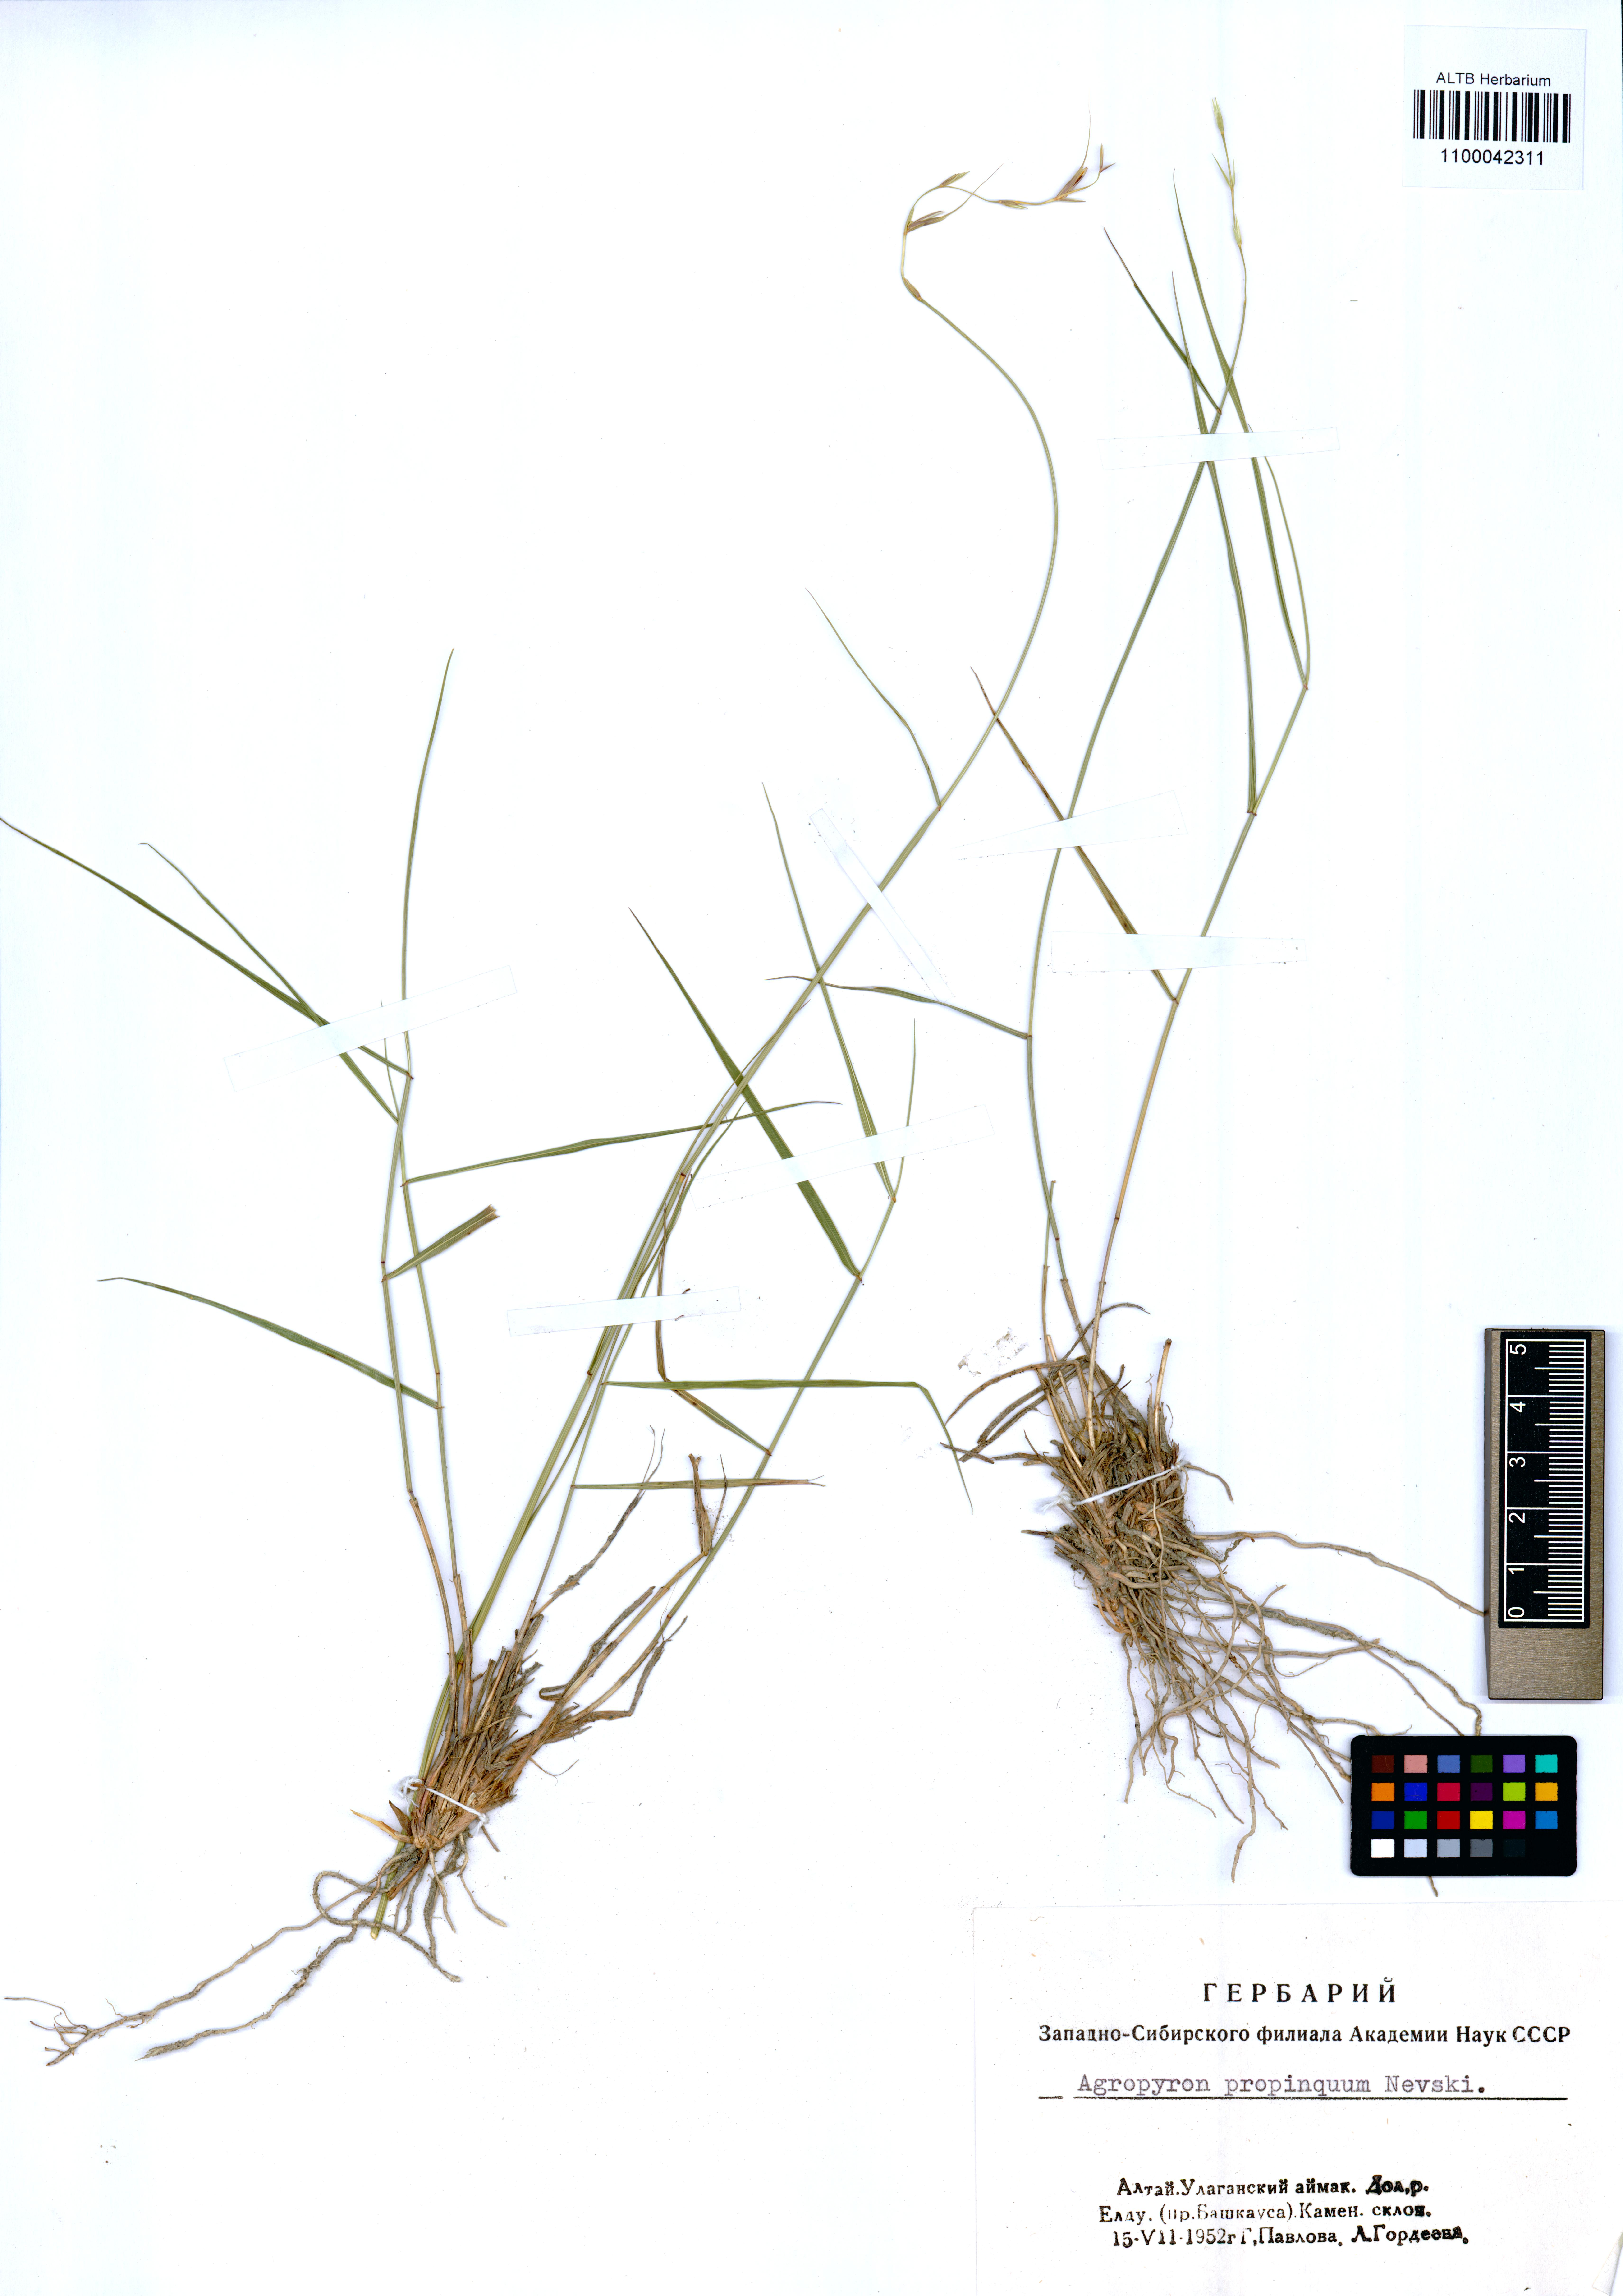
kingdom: Plantae
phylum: Tracheophyta
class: Liliopsida
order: Poales
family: Poaceae
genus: Pseudoroegneria
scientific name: Pseudoroegneria reflexiaristata
